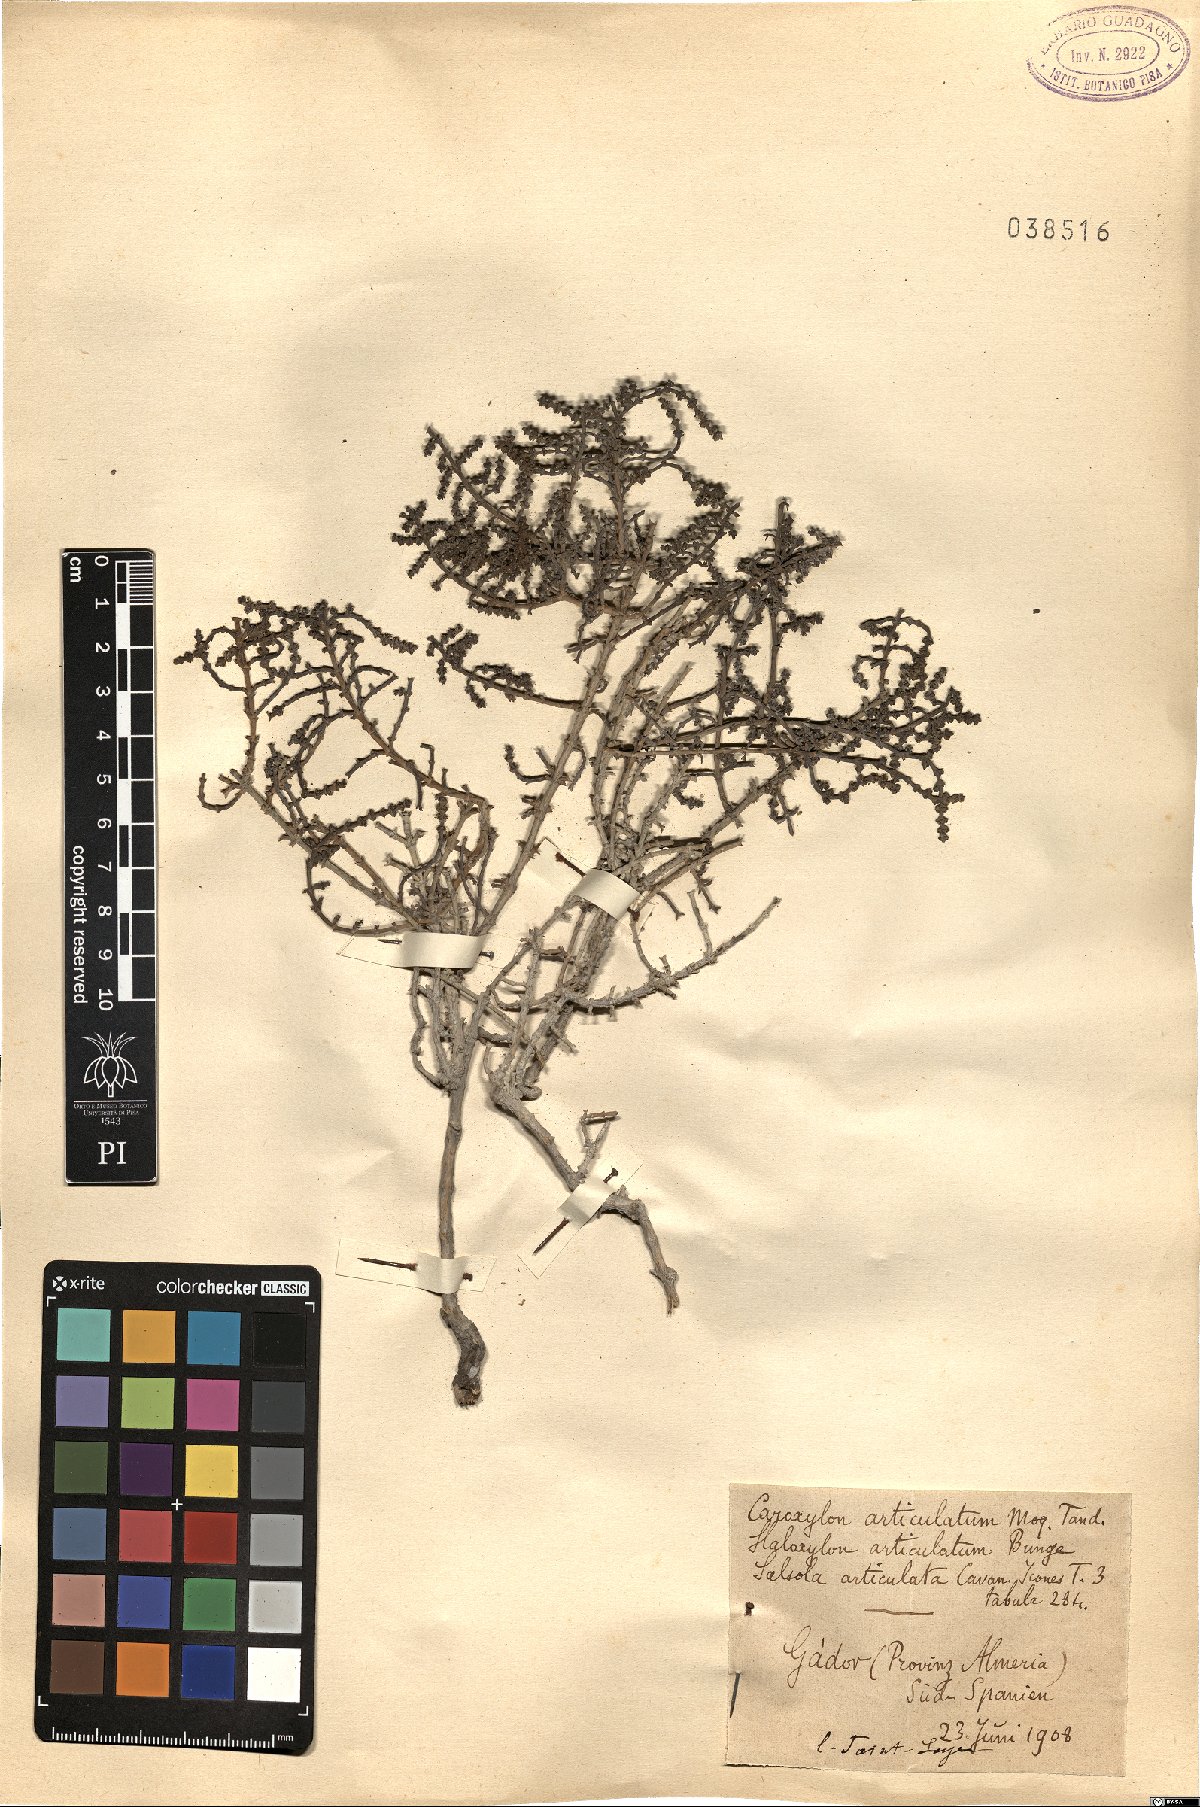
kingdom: Plantae
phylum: Tracheophyta
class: Magnoliopsida
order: Caryophyllales
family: Amaranthaceae
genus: Haloxylon
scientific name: Haloxylon
